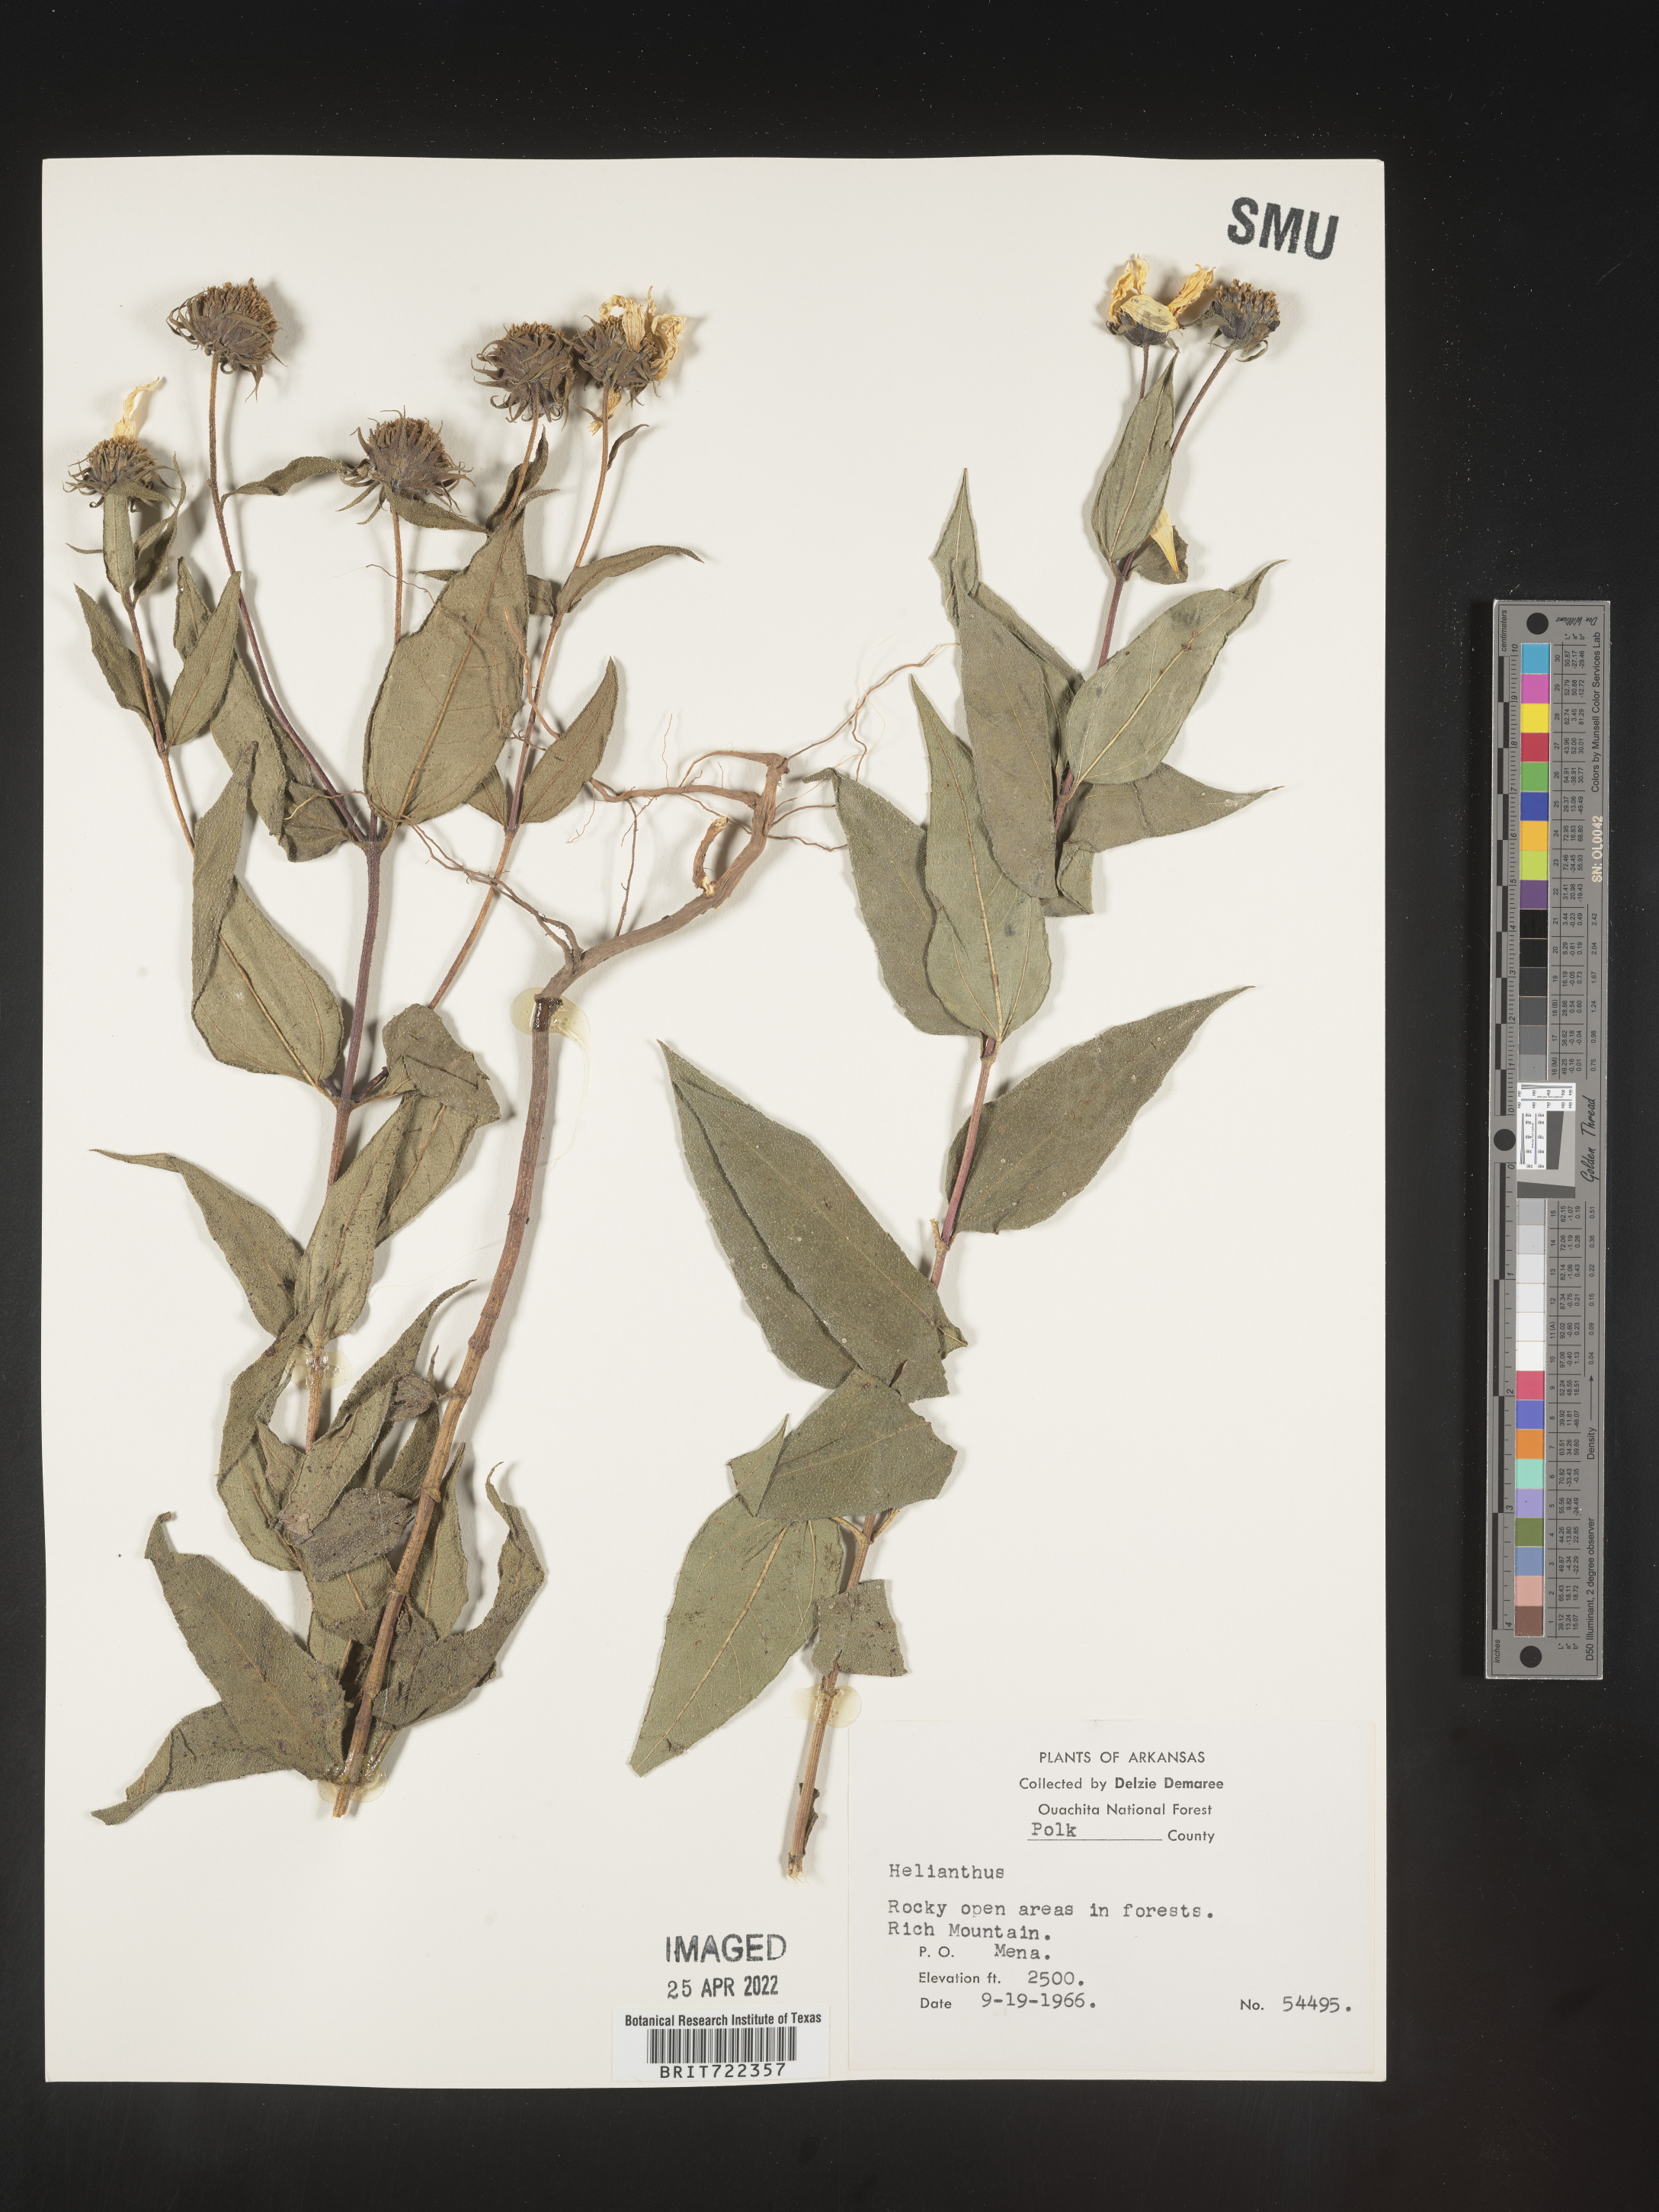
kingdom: Plantae
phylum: Tracheophyta
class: Magnoliopsida
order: Asterales
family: Asteraceae
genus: Helianthus
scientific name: Helianthus hirsutus
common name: Hairy sunflower
